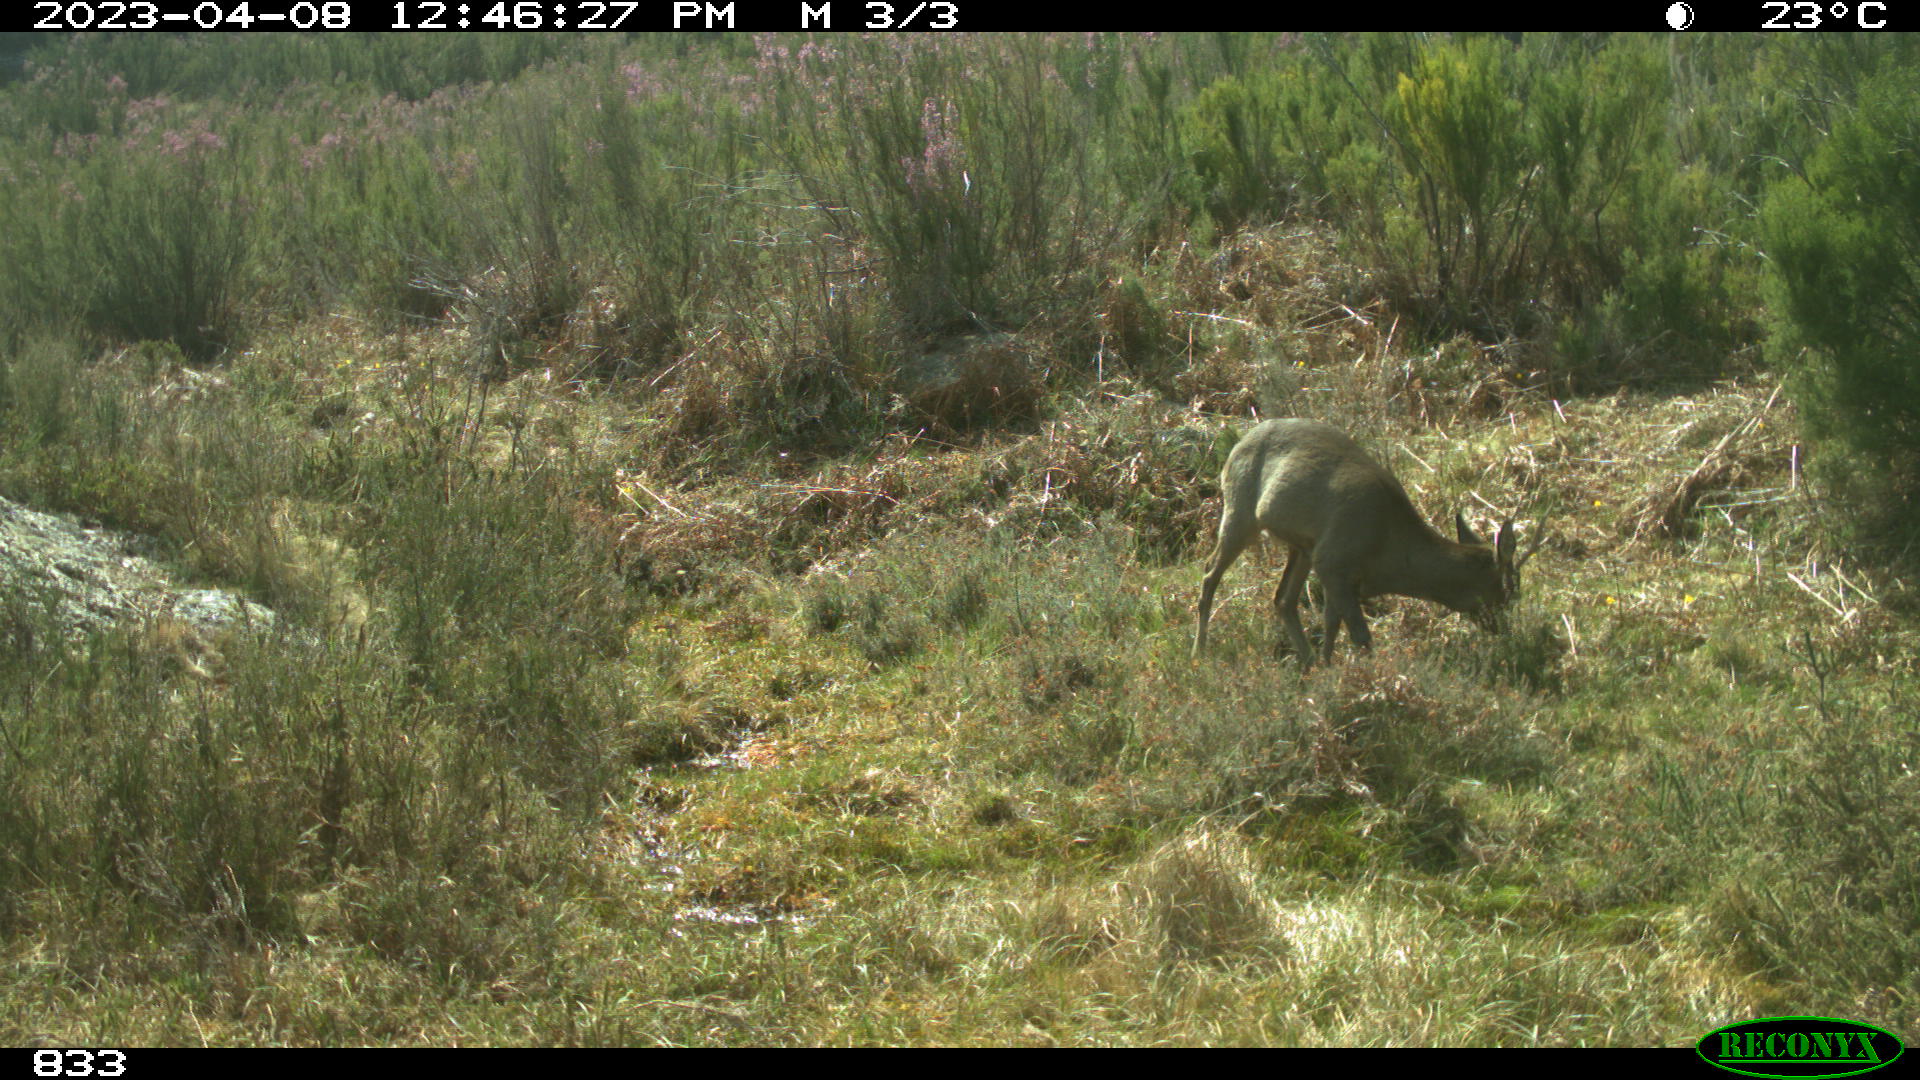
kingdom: Animalia
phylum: Chordata
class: Mammalia
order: Artiodactyla
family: Cervidae
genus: Capreolus
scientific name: Capreolus capreolus
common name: Western roe deer
